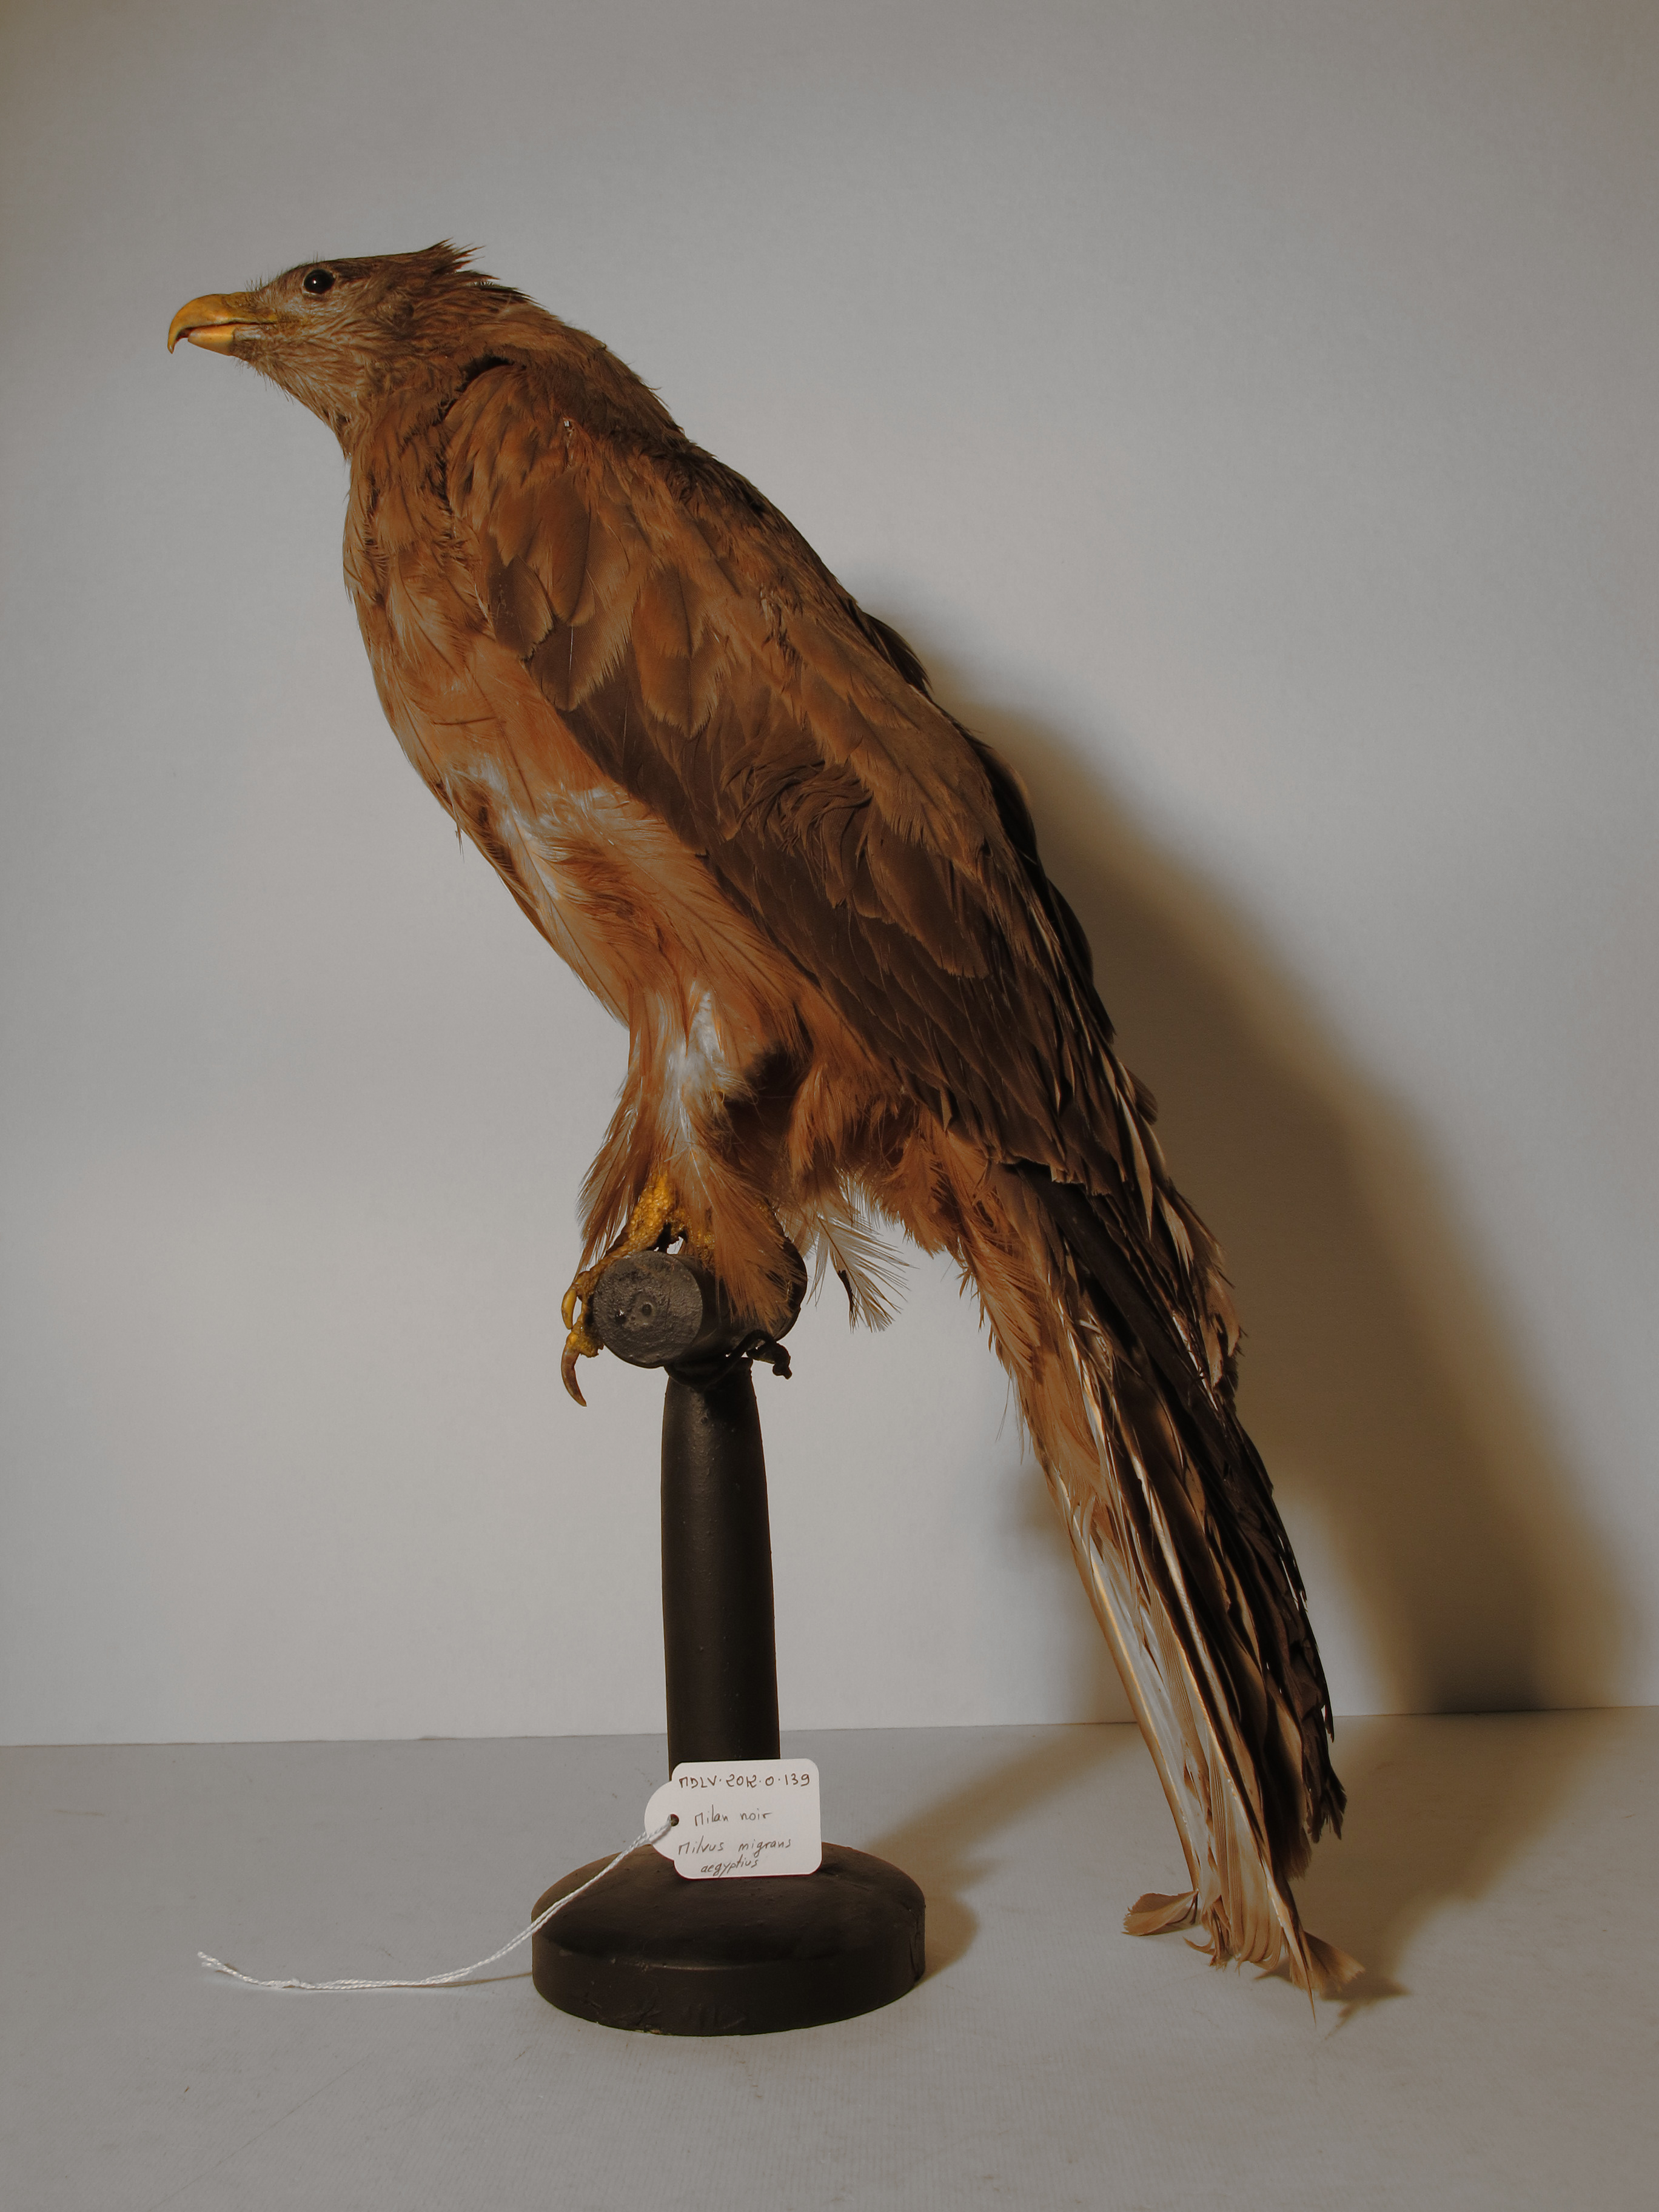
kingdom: Animalia
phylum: Chordata
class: Aves
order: Accipitriformes
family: Accipitridae
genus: Milvus
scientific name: Milvus aegyptius
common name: Black Kite
